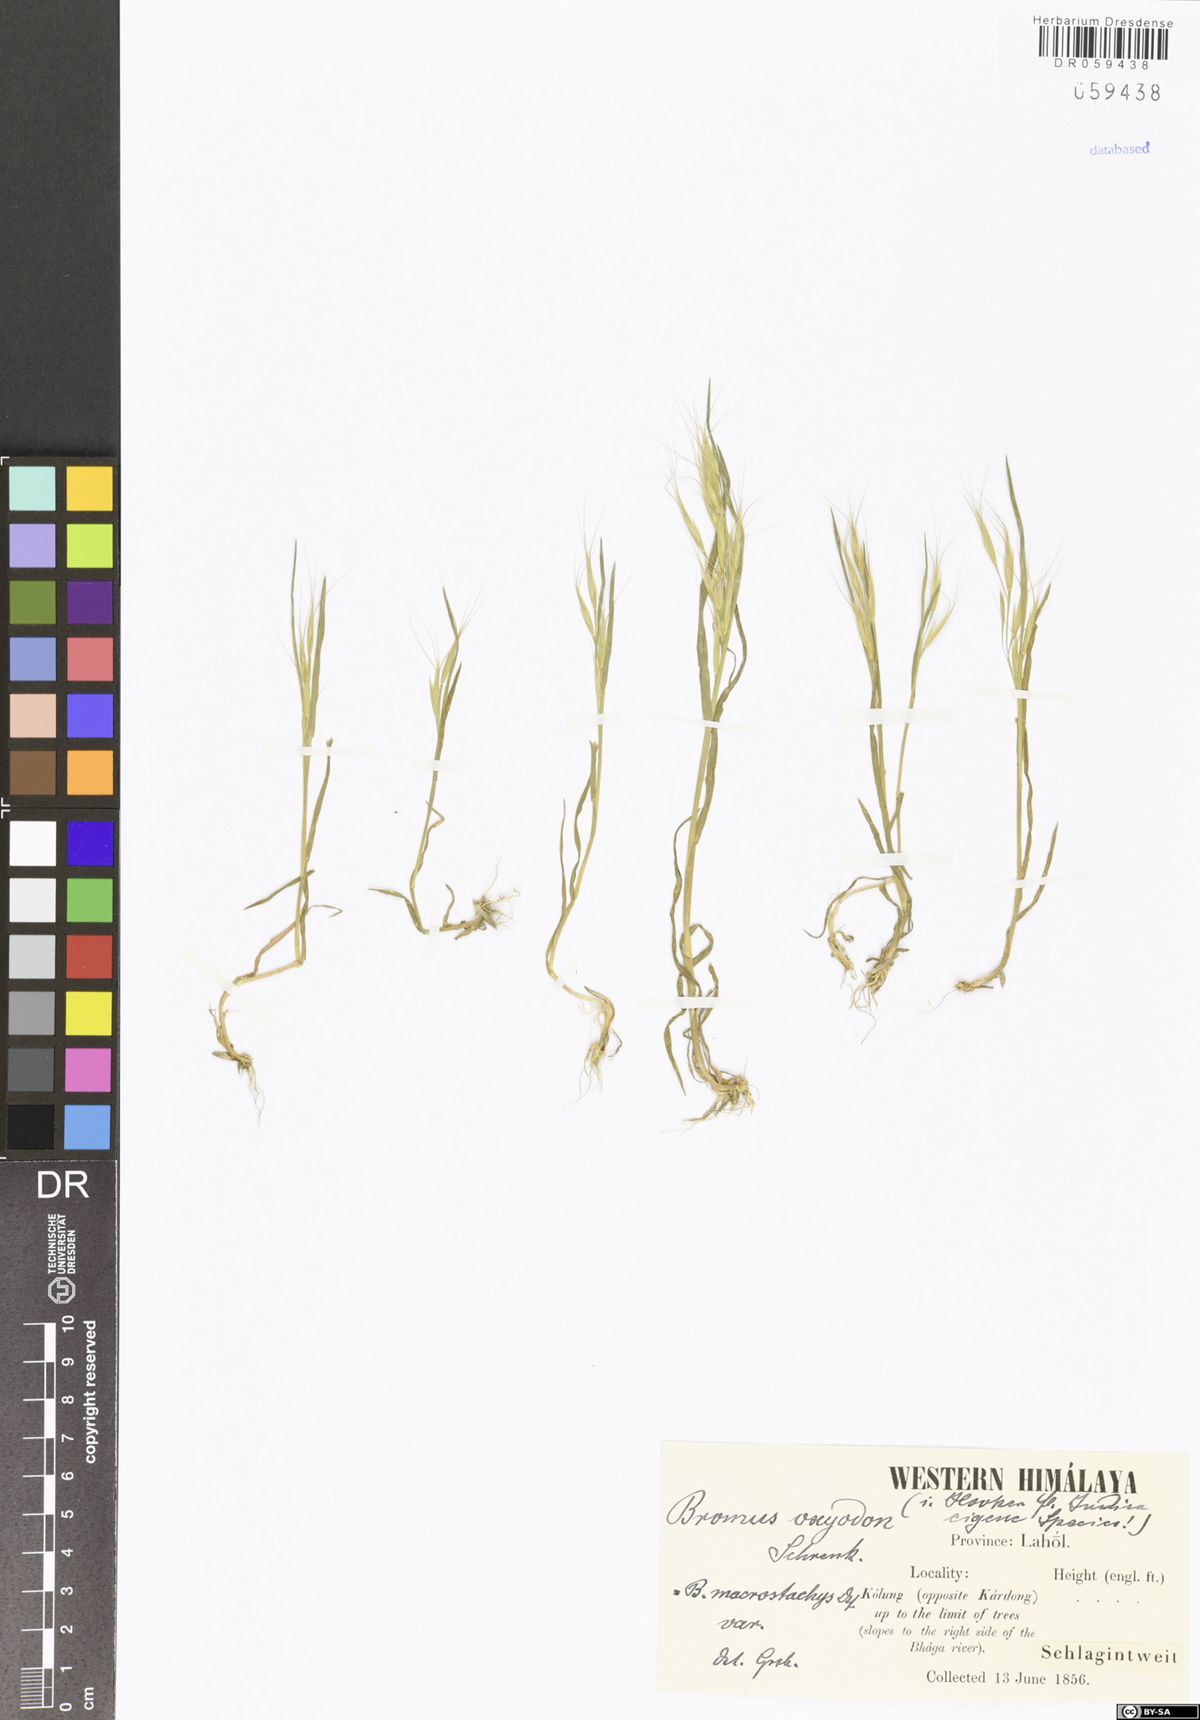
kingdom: Plantae
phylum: Tracheophyta
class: Liliopsida
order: Poales
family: Poaceae
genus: Bromus
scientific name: Bromus oxyodon
